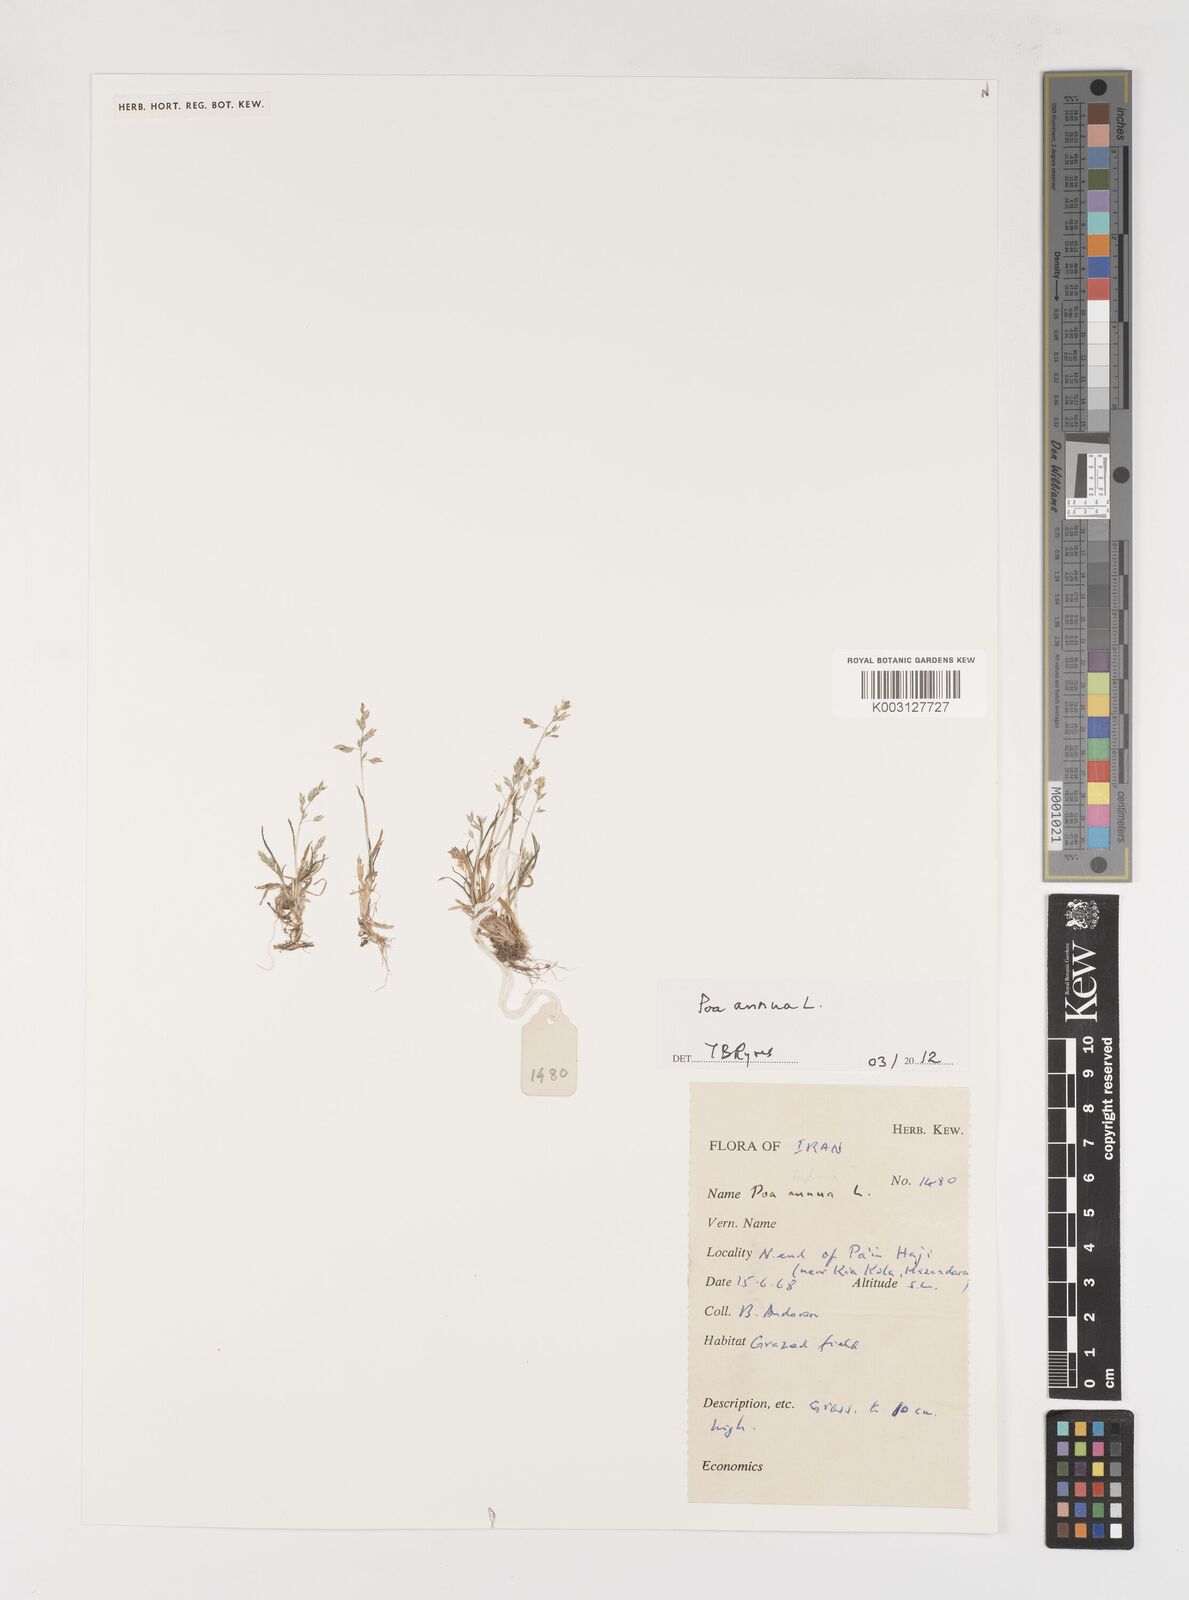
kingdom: Plantae
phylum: Tracheophyta
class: Liliopsida
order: Poales
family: Poaceae
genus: Poa
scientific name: Poa annua
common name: Annual bluegrass
